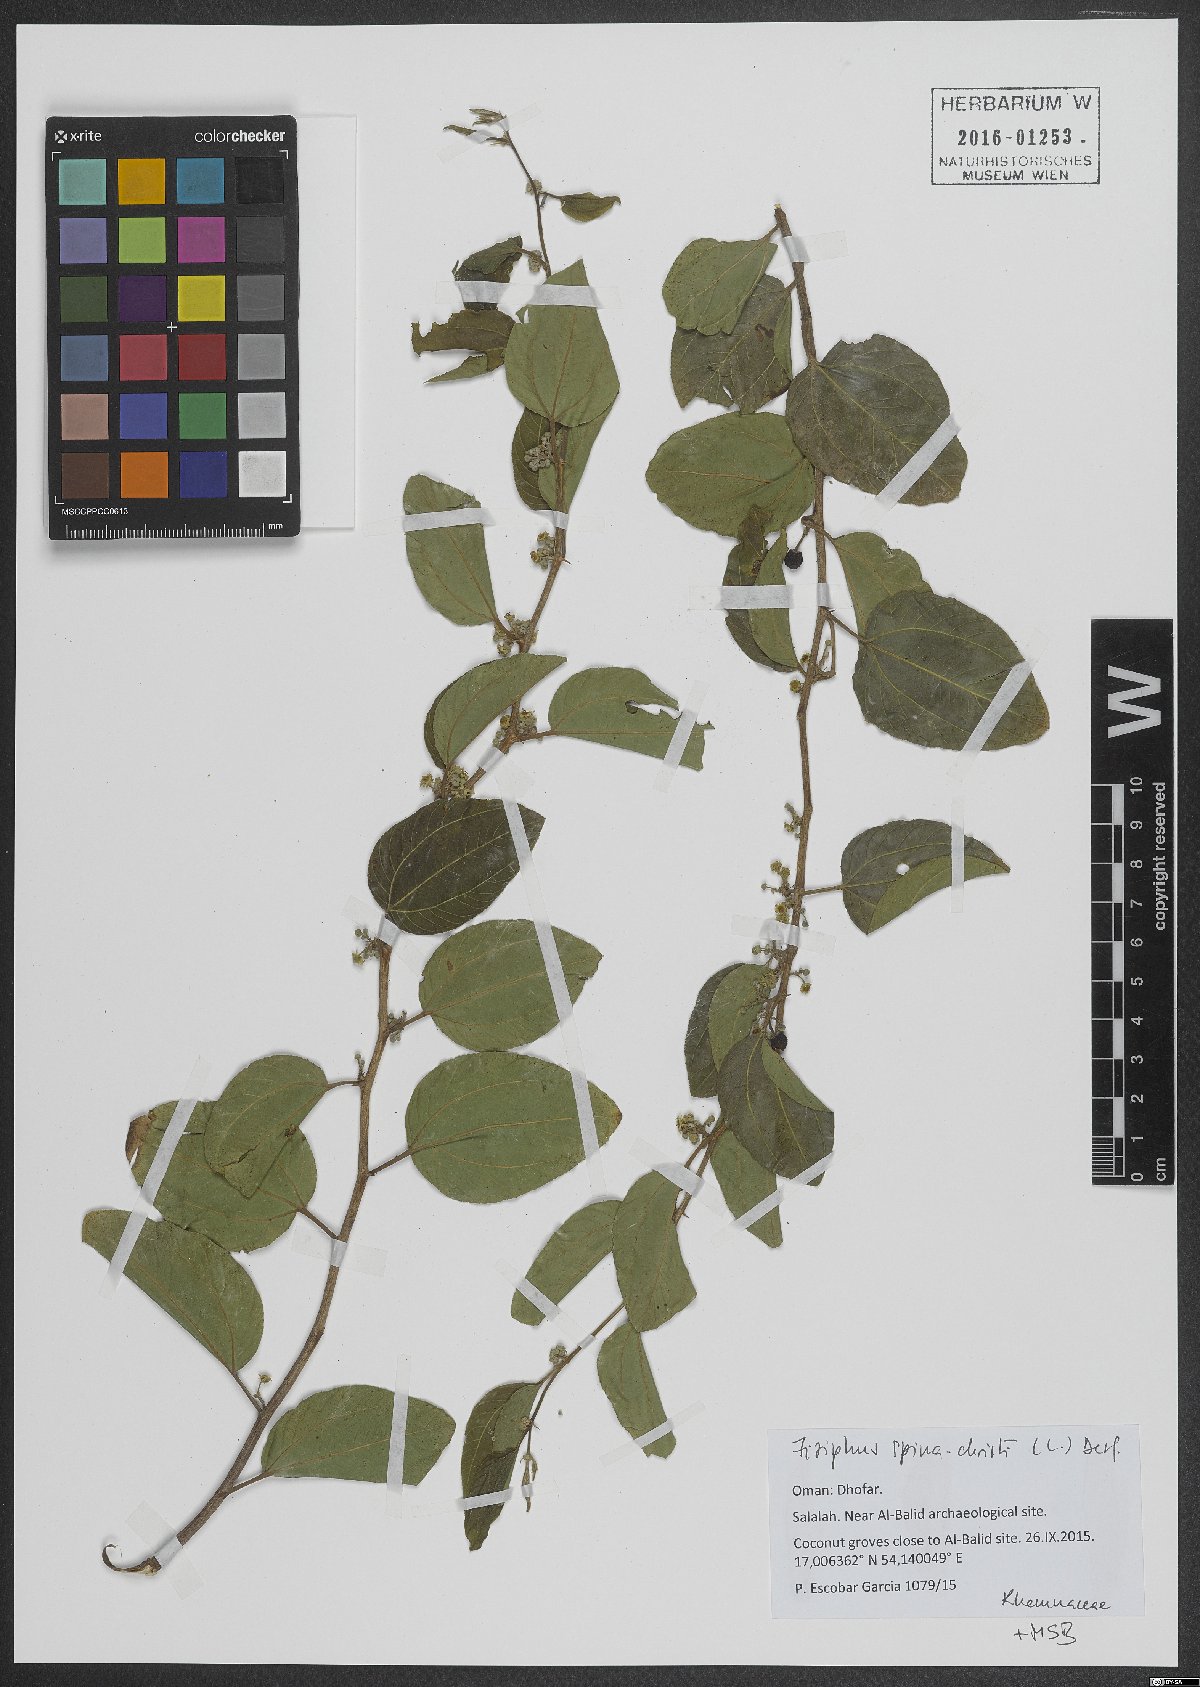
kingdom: Plantae
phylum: Tracheophyta
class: Magnoliopsida
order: Rosales
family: Rhamnaceae
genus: Ziziphus
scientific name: Ziziphus spina-christi
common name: Syrian christ-thorn
